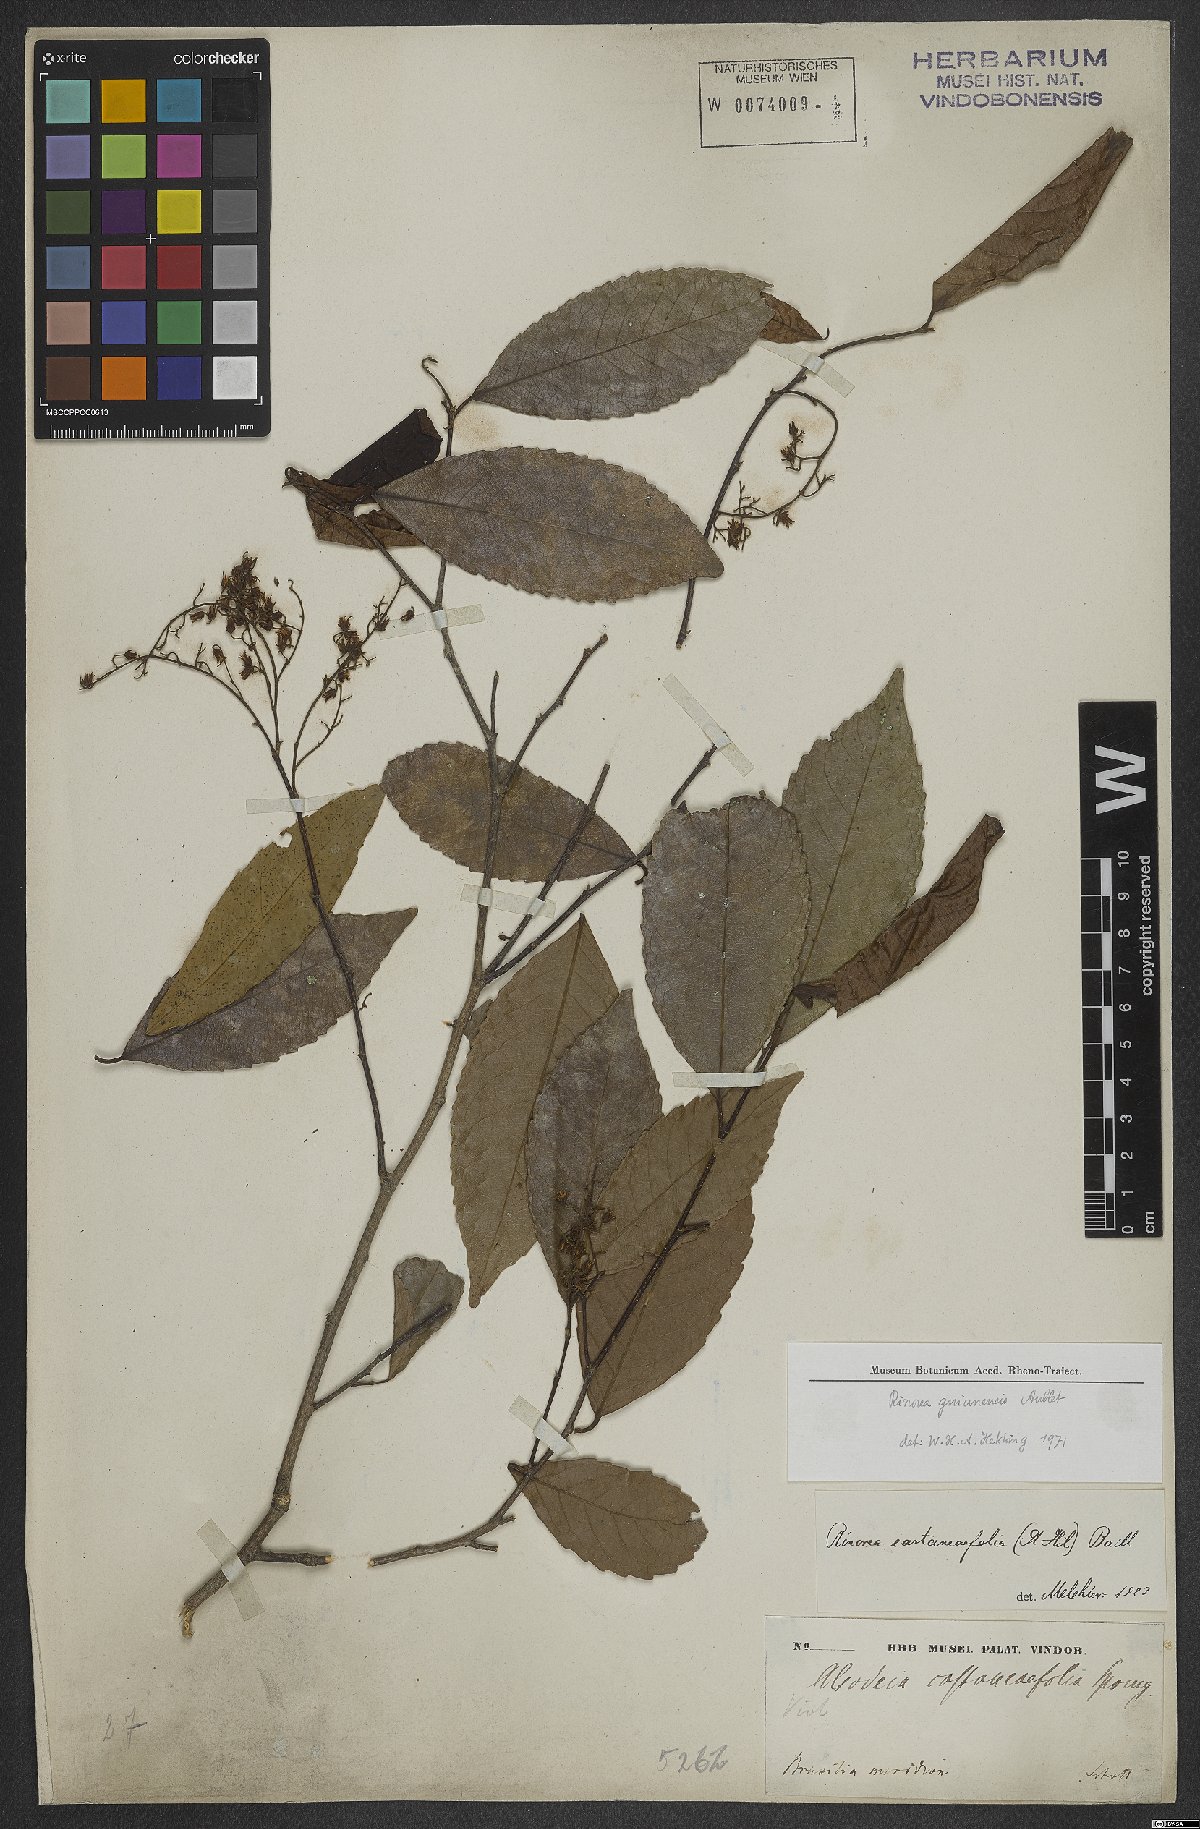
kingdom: Plantae
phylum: Tracheophyta
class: Magnoliopsida
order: Malpighiales
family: Violaceae
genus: Rinorea
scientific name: Rinorea guianensis
